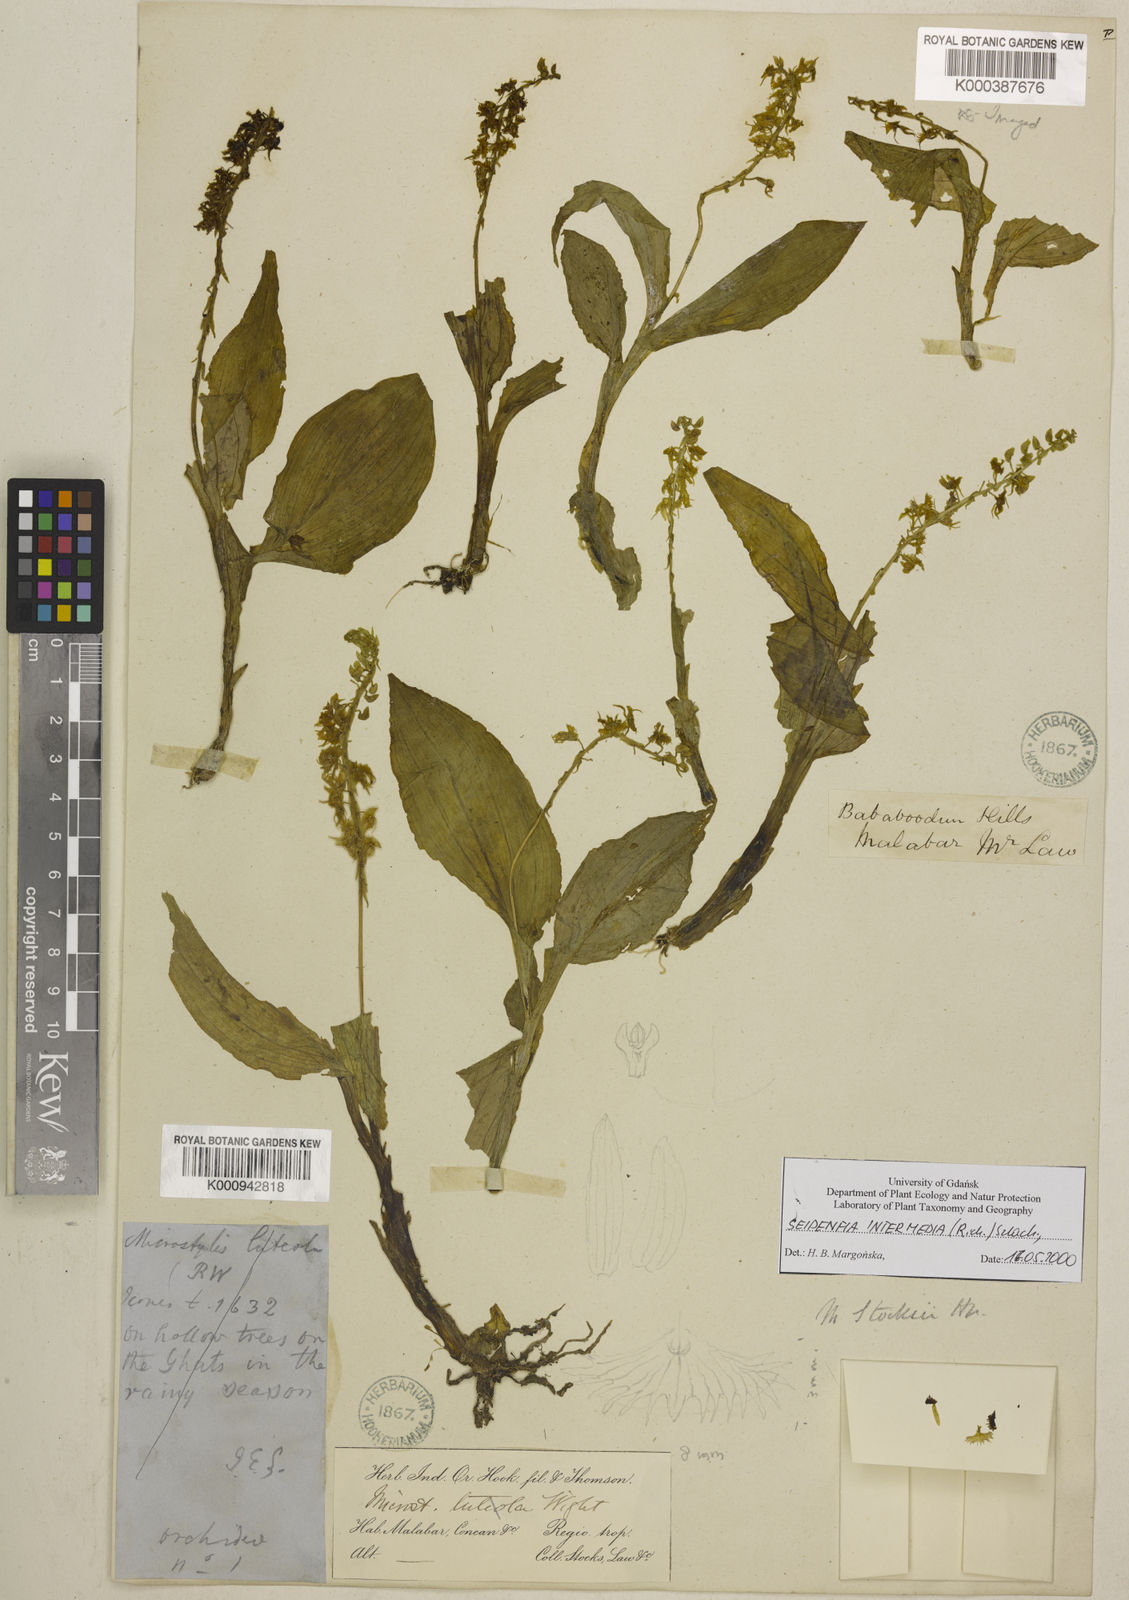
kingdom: Plantae
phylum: Tracheophyta
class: Liliopsida
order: Asparagales
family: Orchidaceae
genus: Crepidium
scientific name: Crepidium
